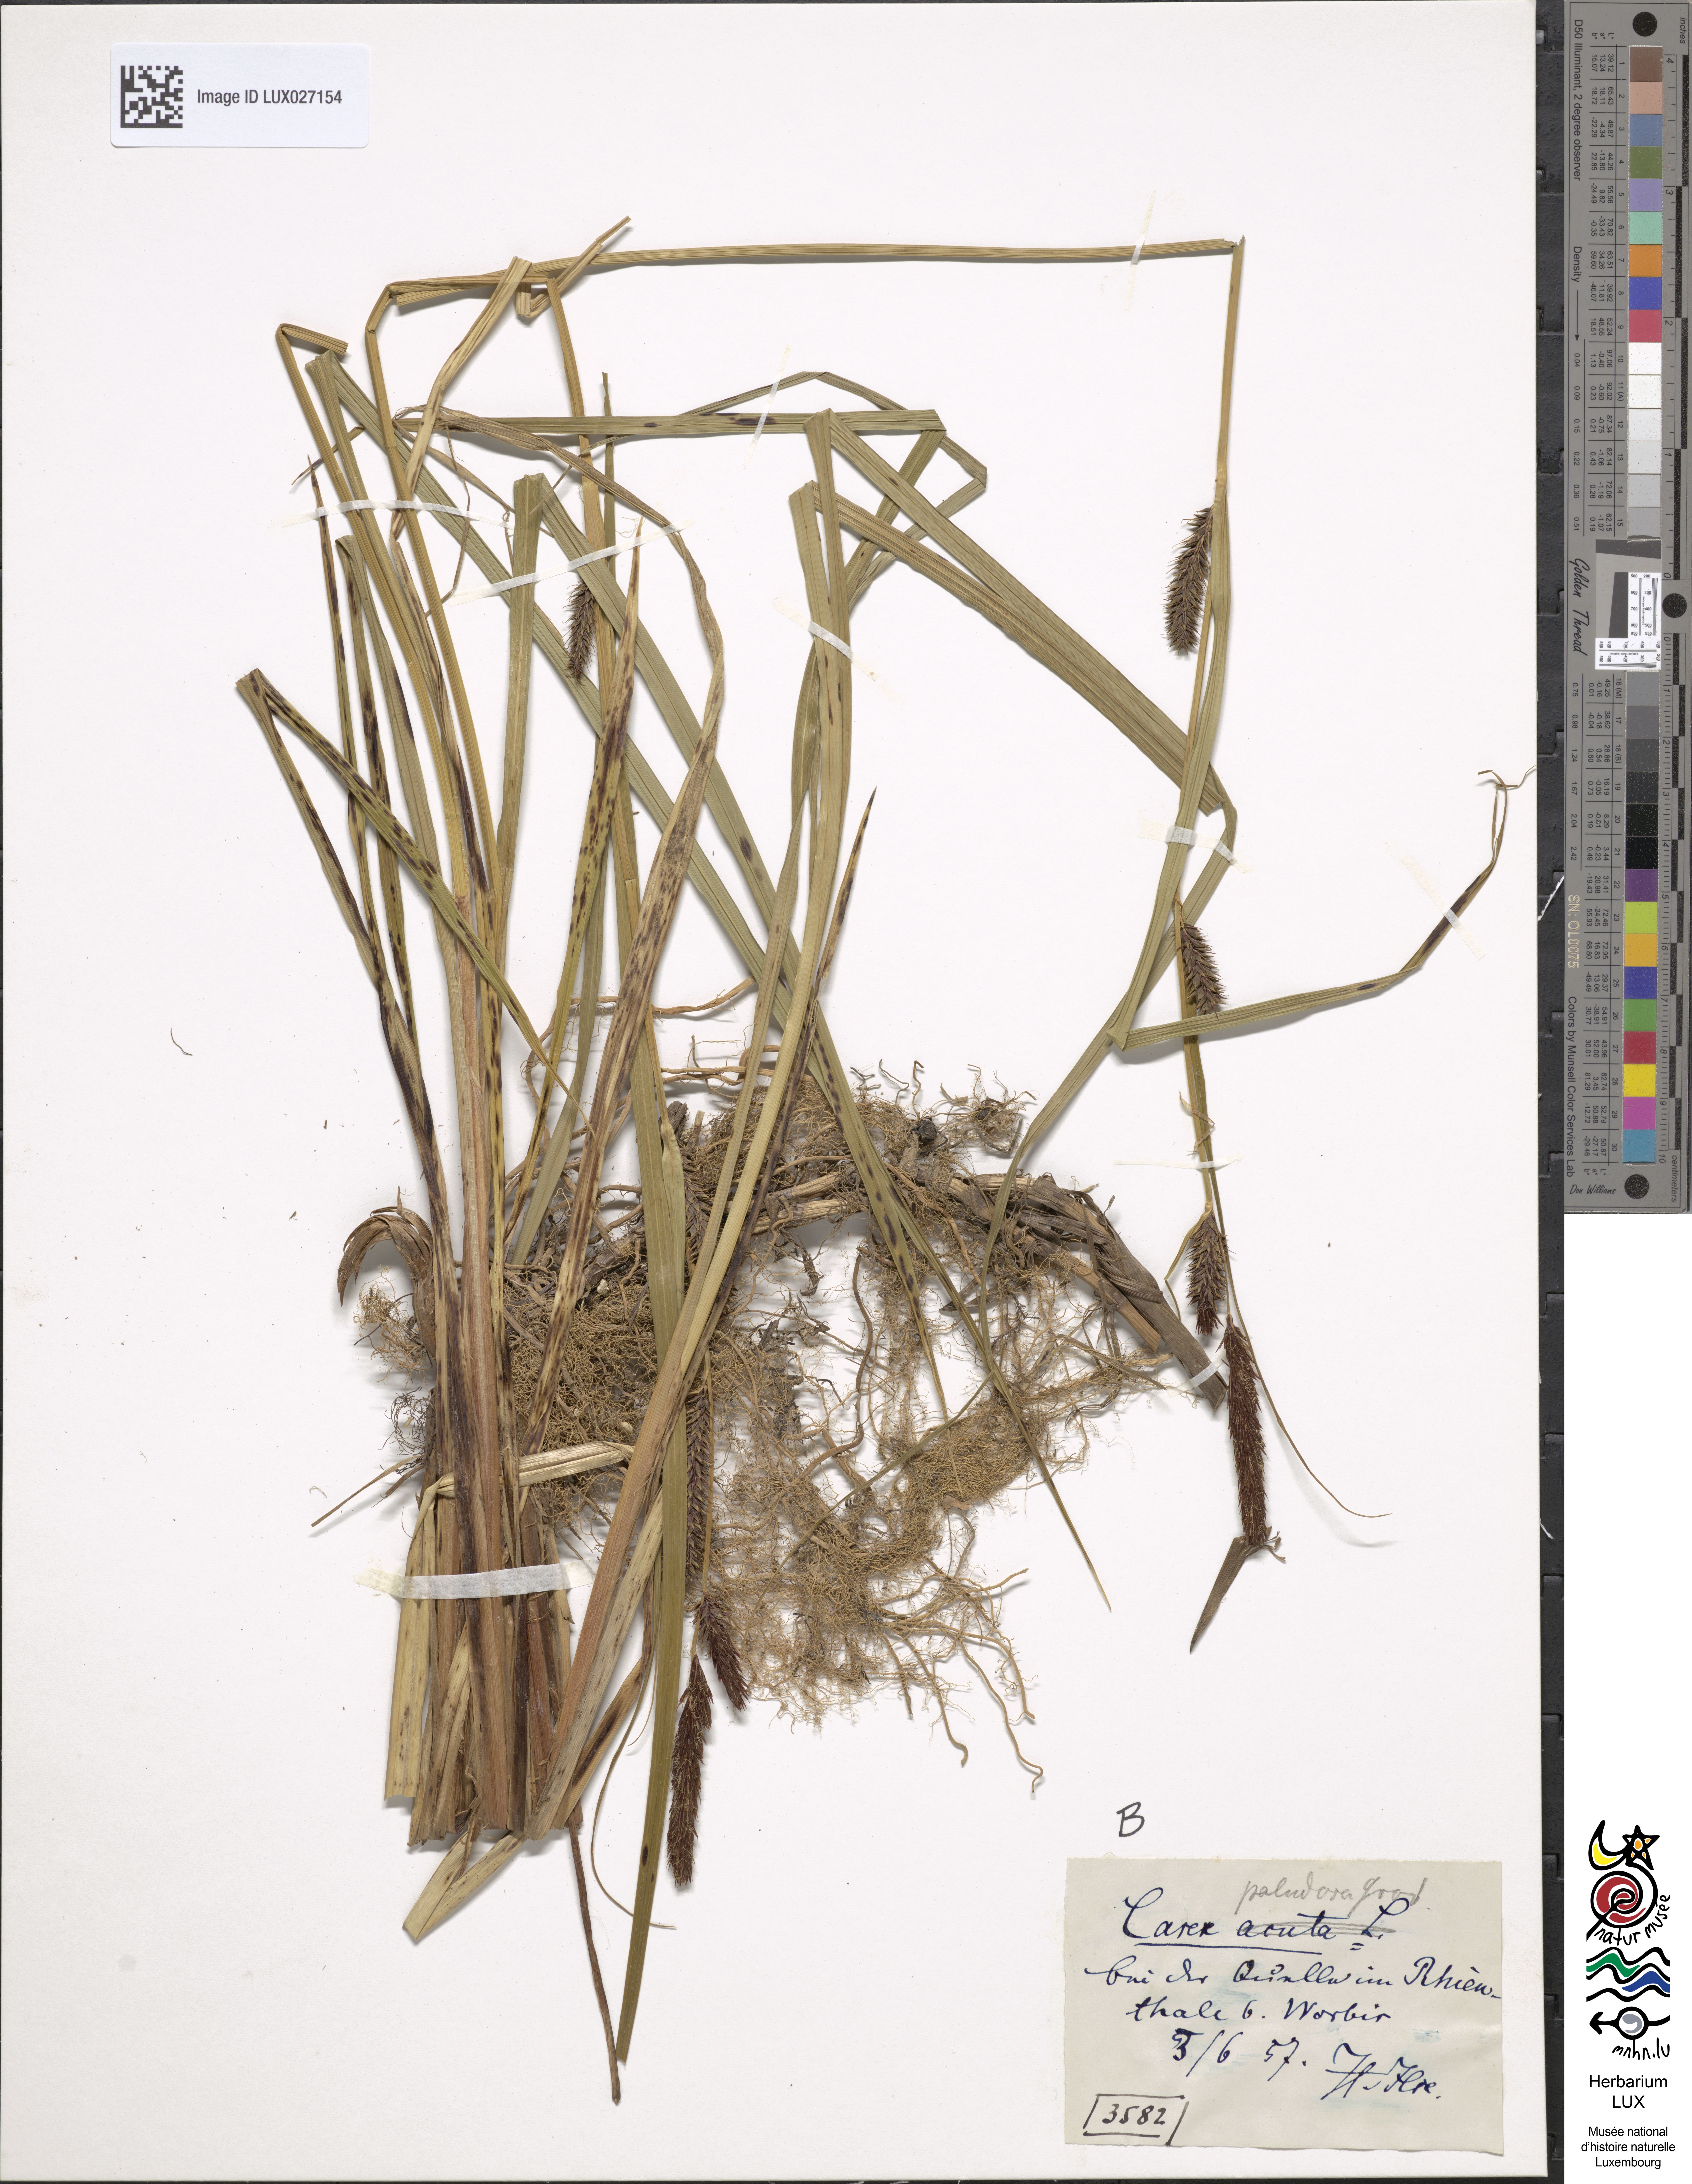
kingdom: Plantae
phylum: Tracheophyta
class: Liliopsida
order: Poales
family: Cyperaceae
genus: Carex
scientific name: Carex acutiformis
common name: Lesser pond-sedge
